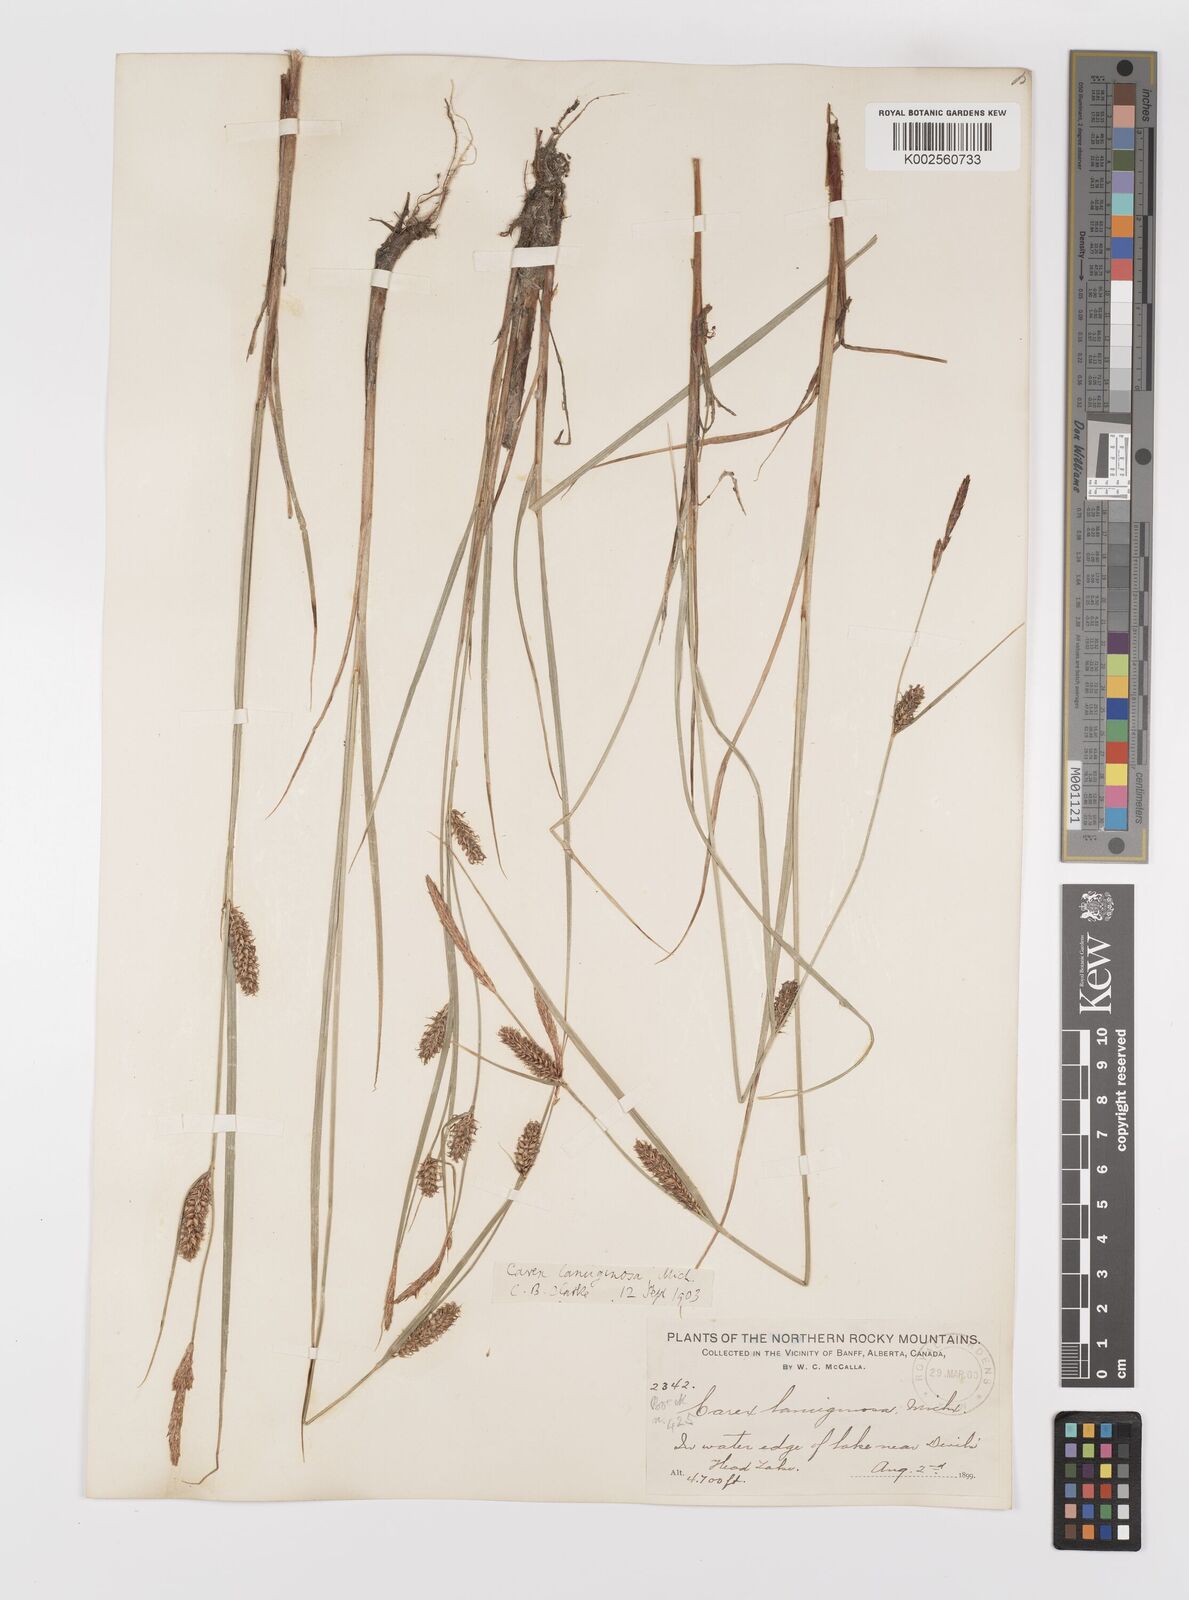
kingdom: Plantae
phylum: Tracheophyta
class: Liliopsida
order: Poales
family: Cyperaceae
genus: Carex
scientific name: Carex lasiocarpa
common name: Slender sedge
